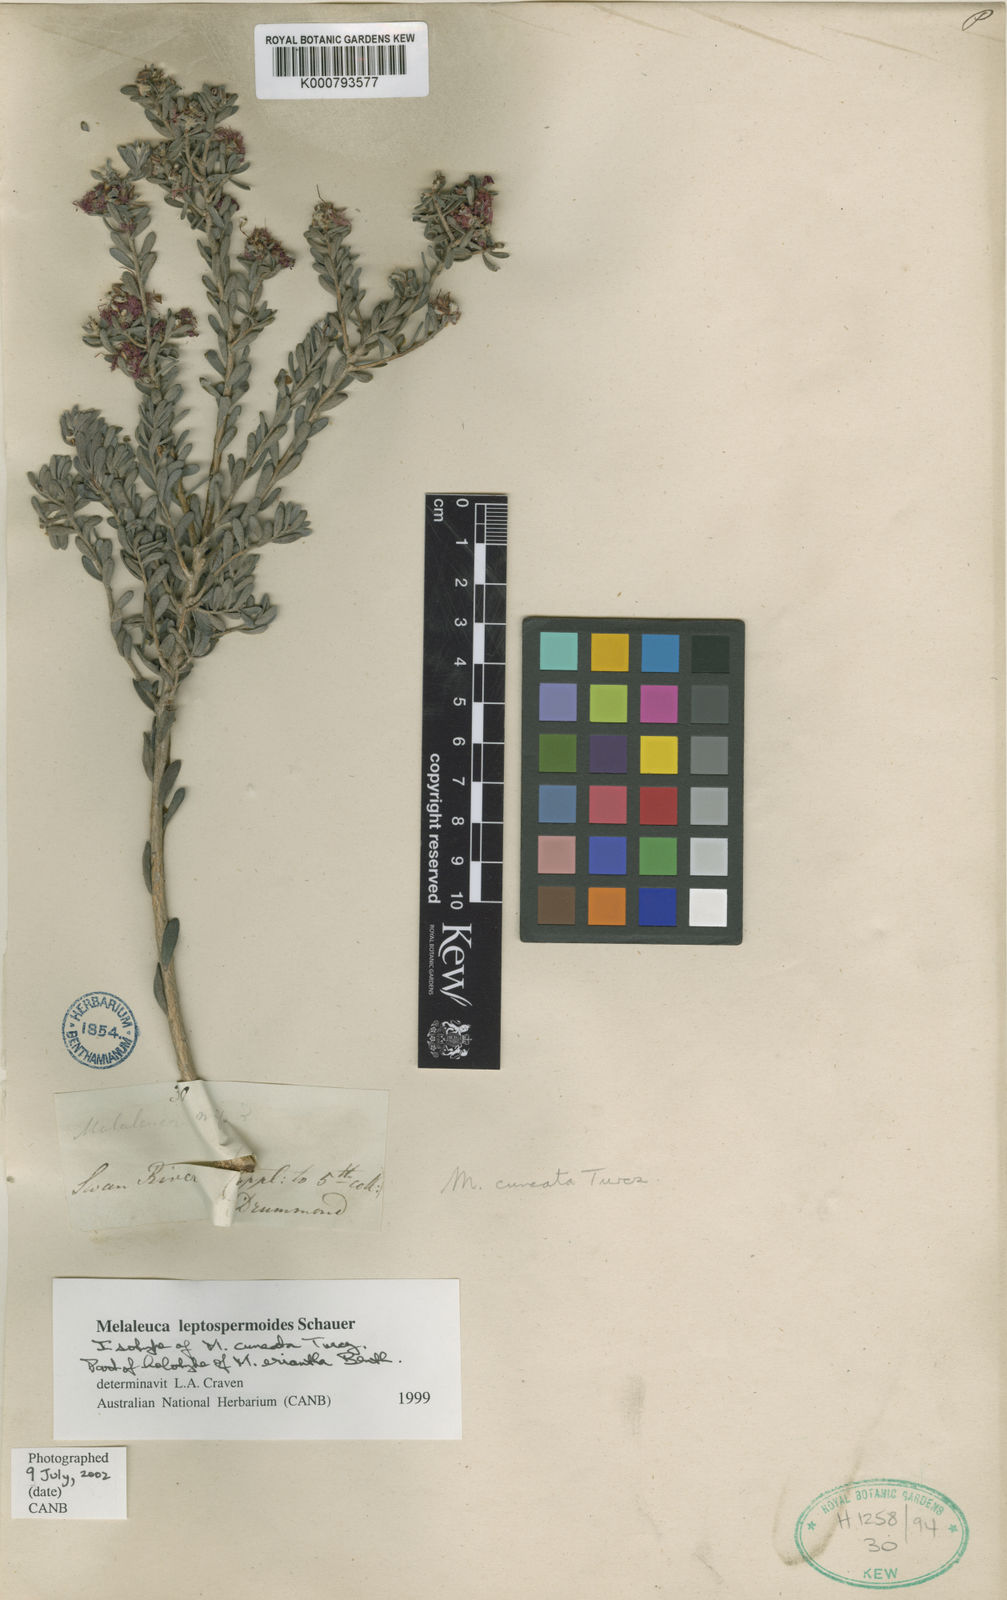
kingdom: Plantae
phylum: Tracheophyta
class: Magnoliopsida
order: Myrtales
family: Myrtaceae
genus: Melaleuca
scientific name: Melaleuca leptospermoides
